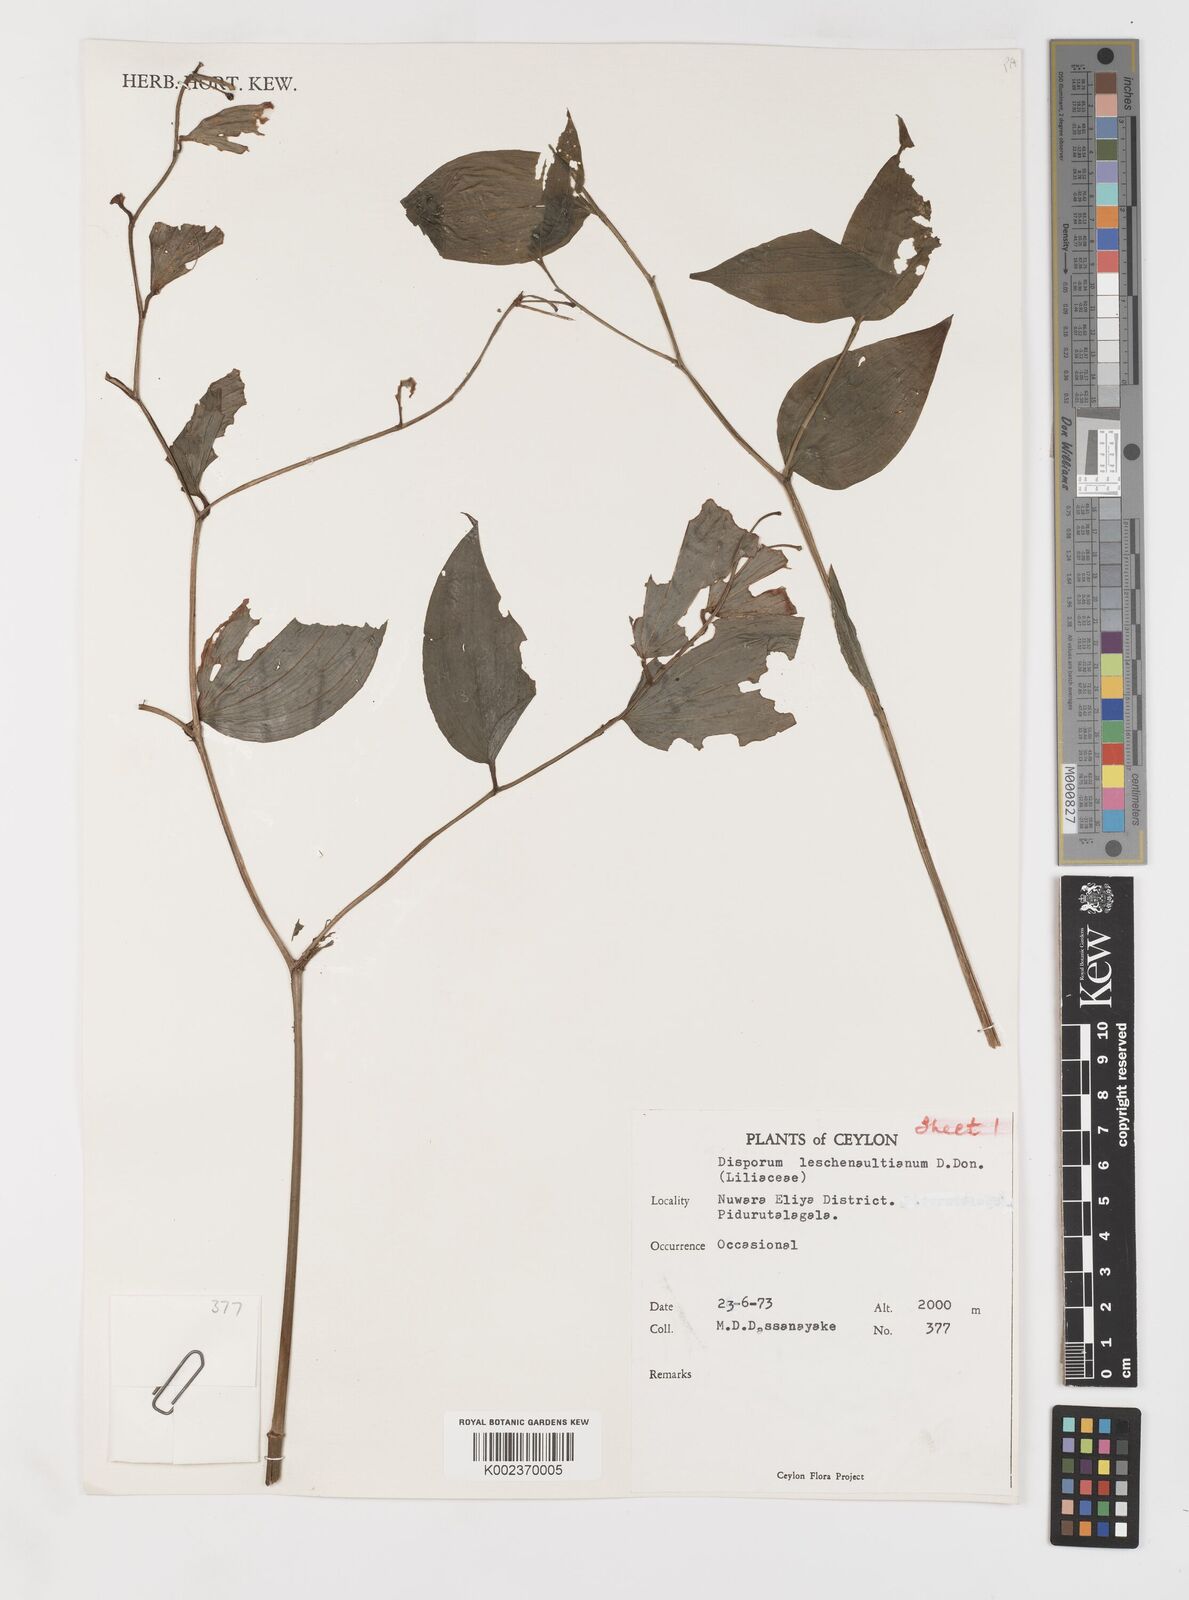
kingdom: Plantae
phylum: Tracheophyta
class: Liliopsida
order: Liliales
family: Colchicaceae
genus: Disporum
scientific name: Disporum cantoniense
